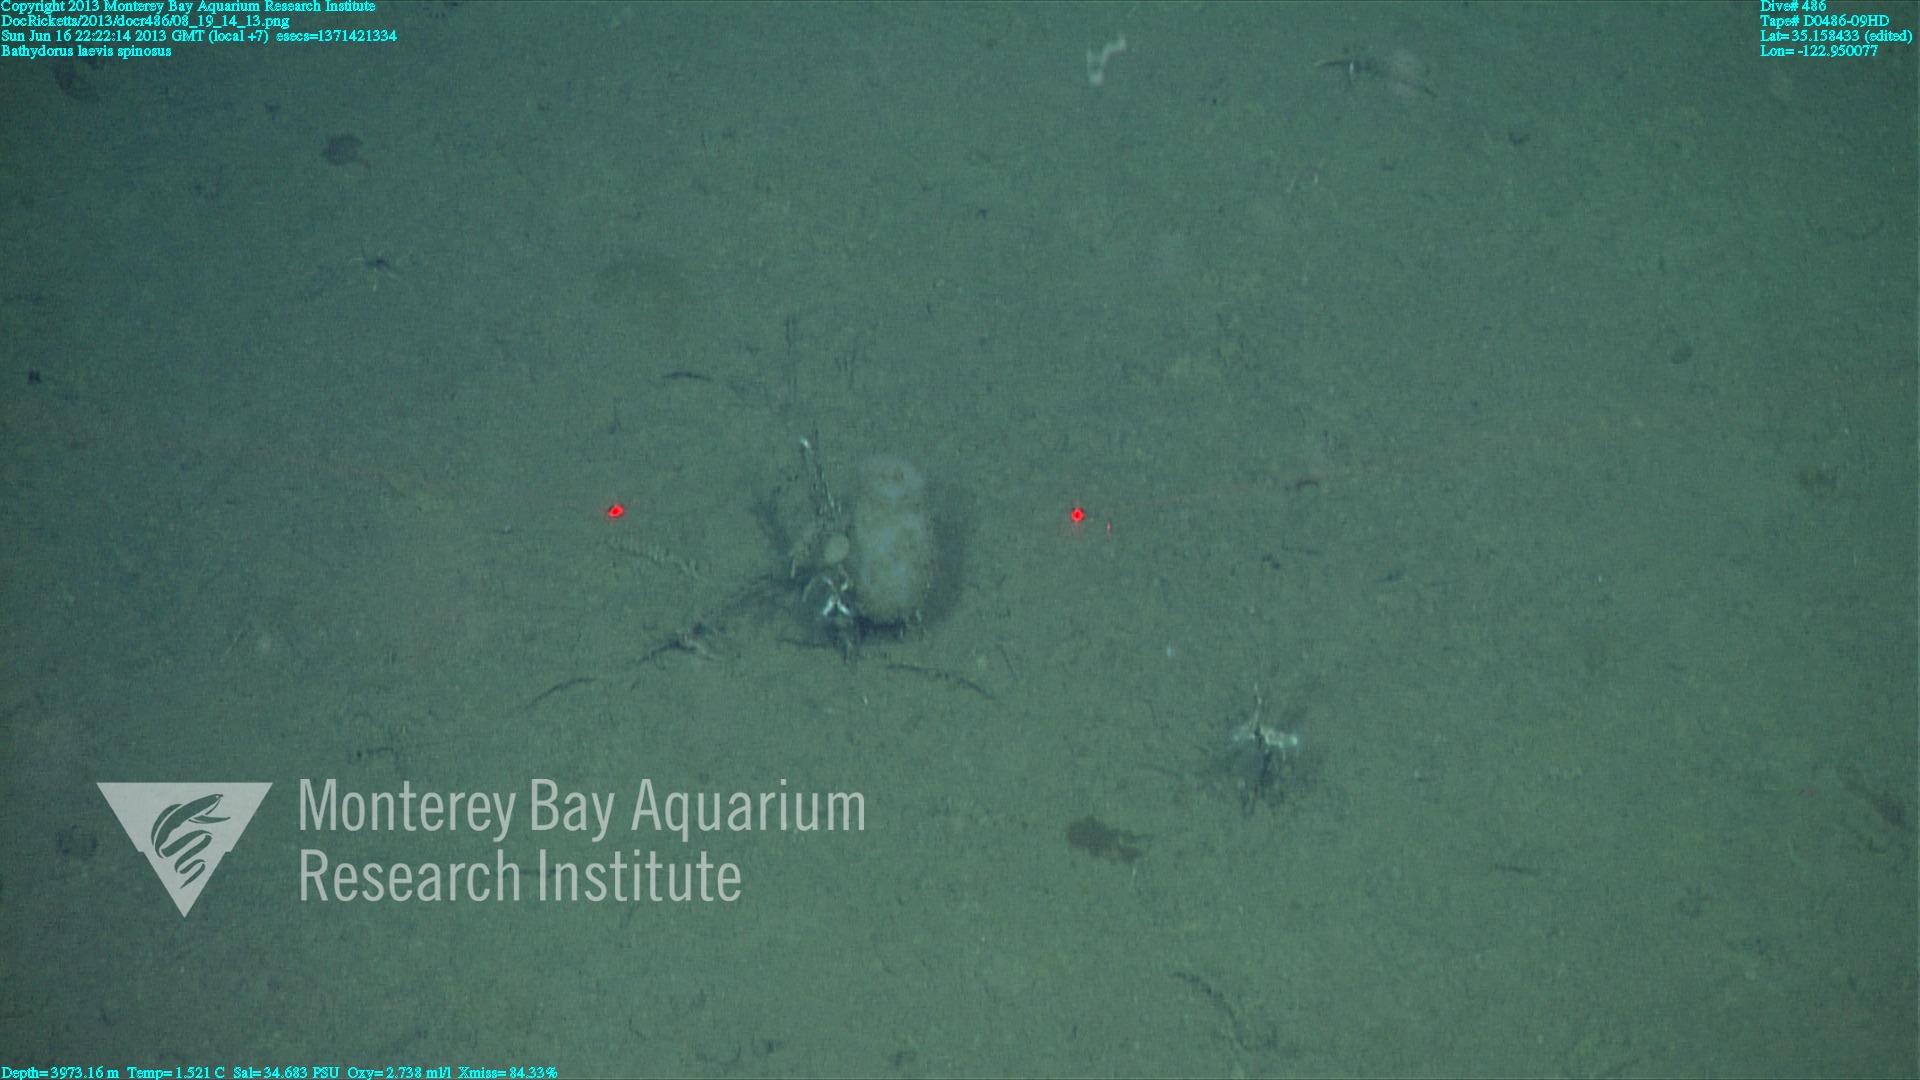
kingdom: Animalia
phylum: Porifera
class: Hexactinellida
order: Lyssacinosida
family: Rossellidae
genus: Bathydorus
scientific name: Bathydorus spinosus
